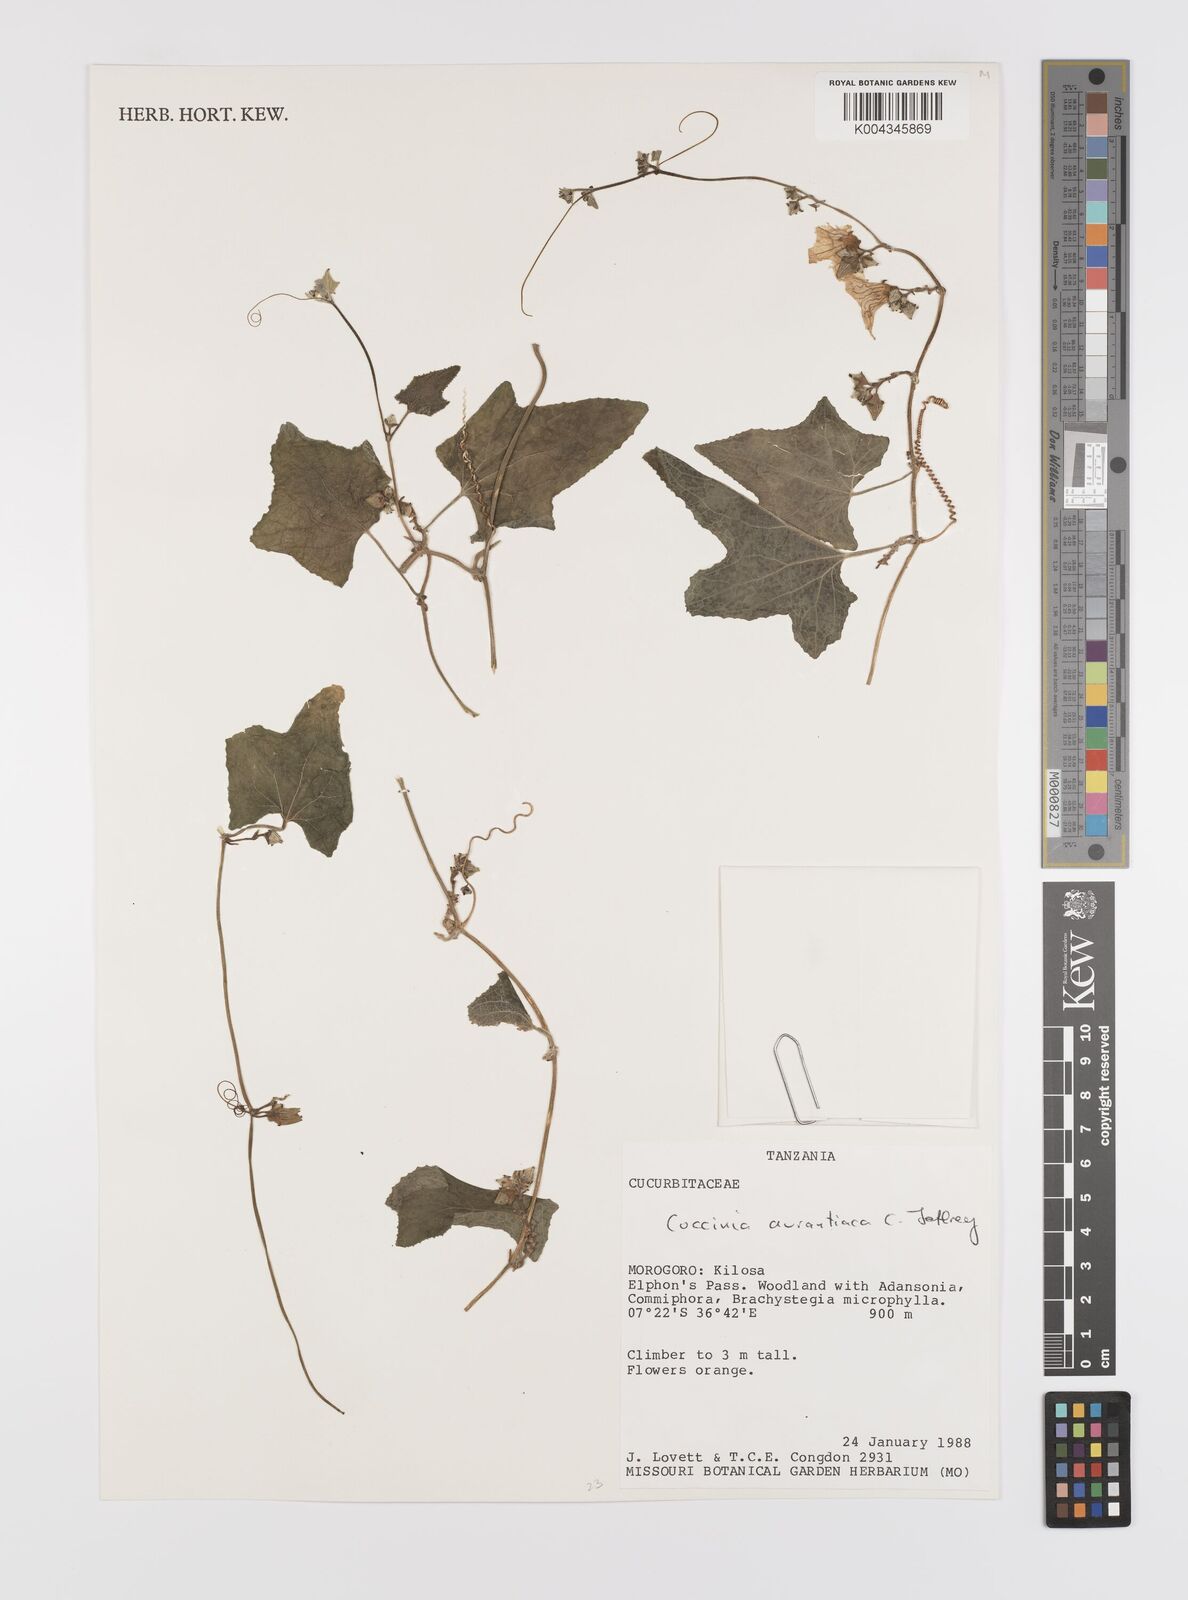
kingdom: Plantae
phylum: Tracheophyta
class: Magnoliopsida
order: Cucurbitales
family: Cucurbitaceae
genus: Coccinia
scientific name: Coccinia adoensis
